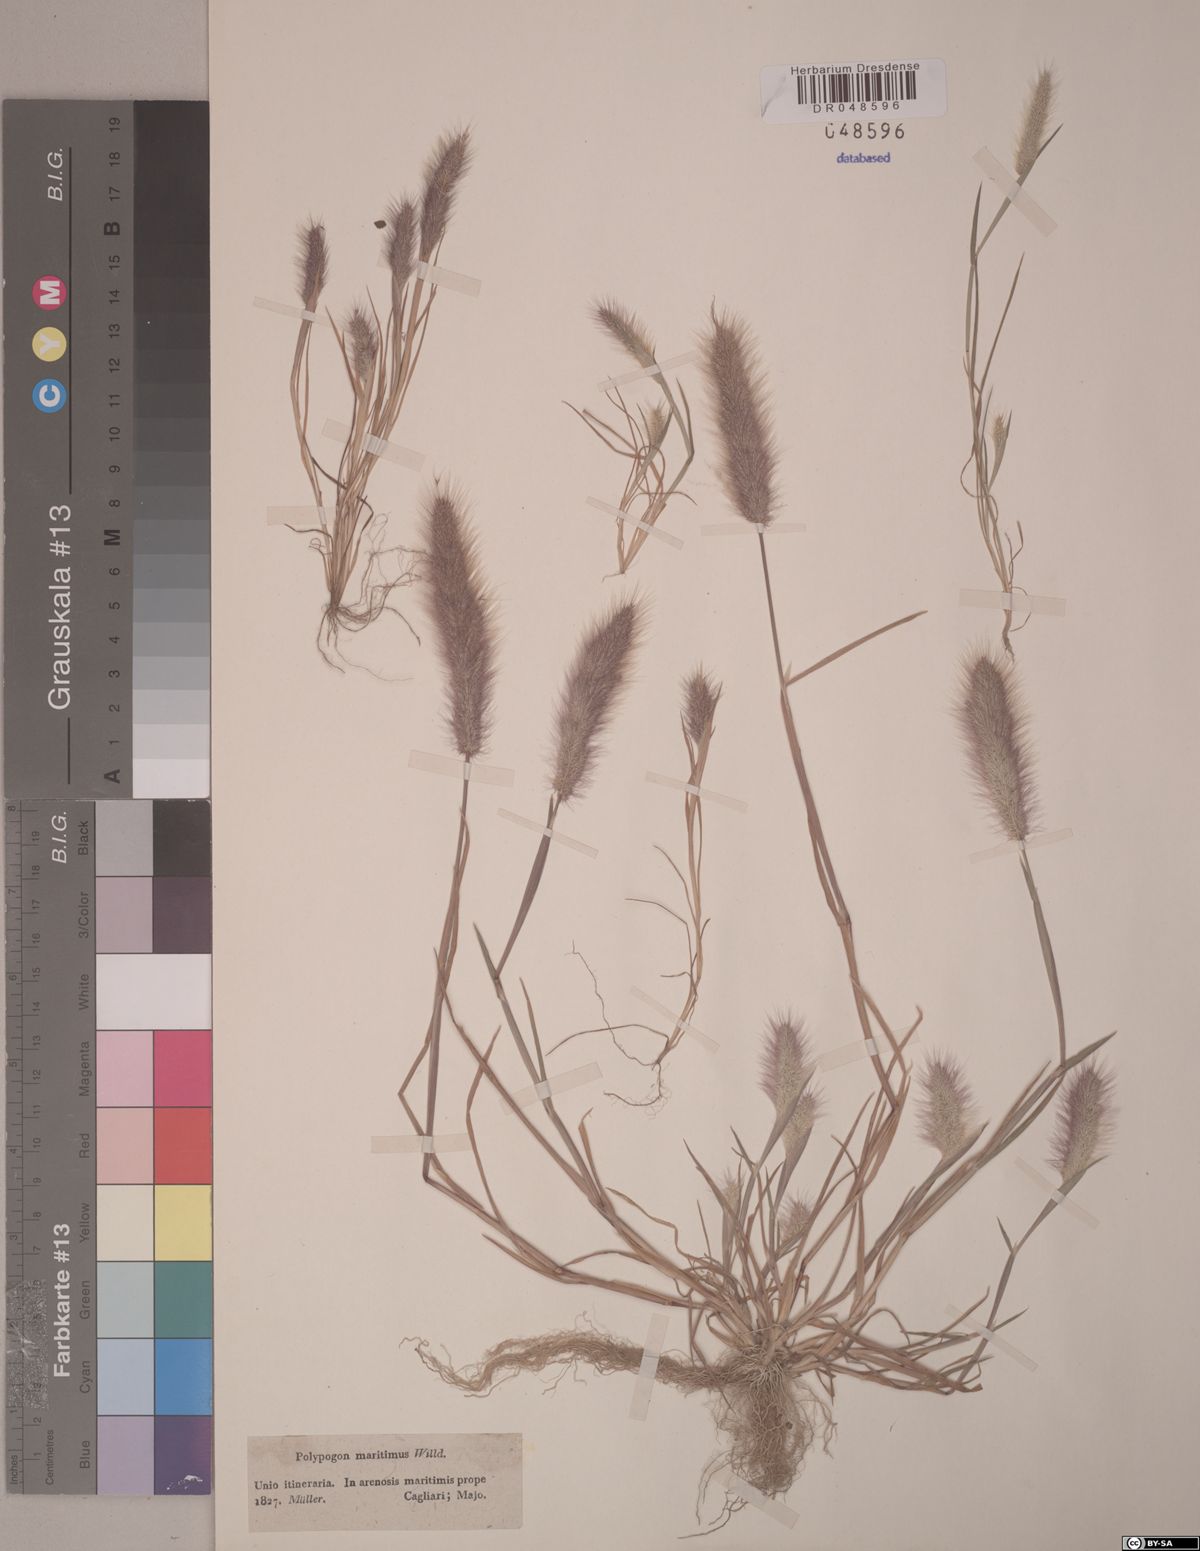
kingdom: Plantae
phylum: Tracheophyta
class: Liliopsida
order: Poales
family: Poaceae
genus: Polypogon
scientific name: Polypogon maritimus
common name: Mediterranean rabbitsfoot grass
